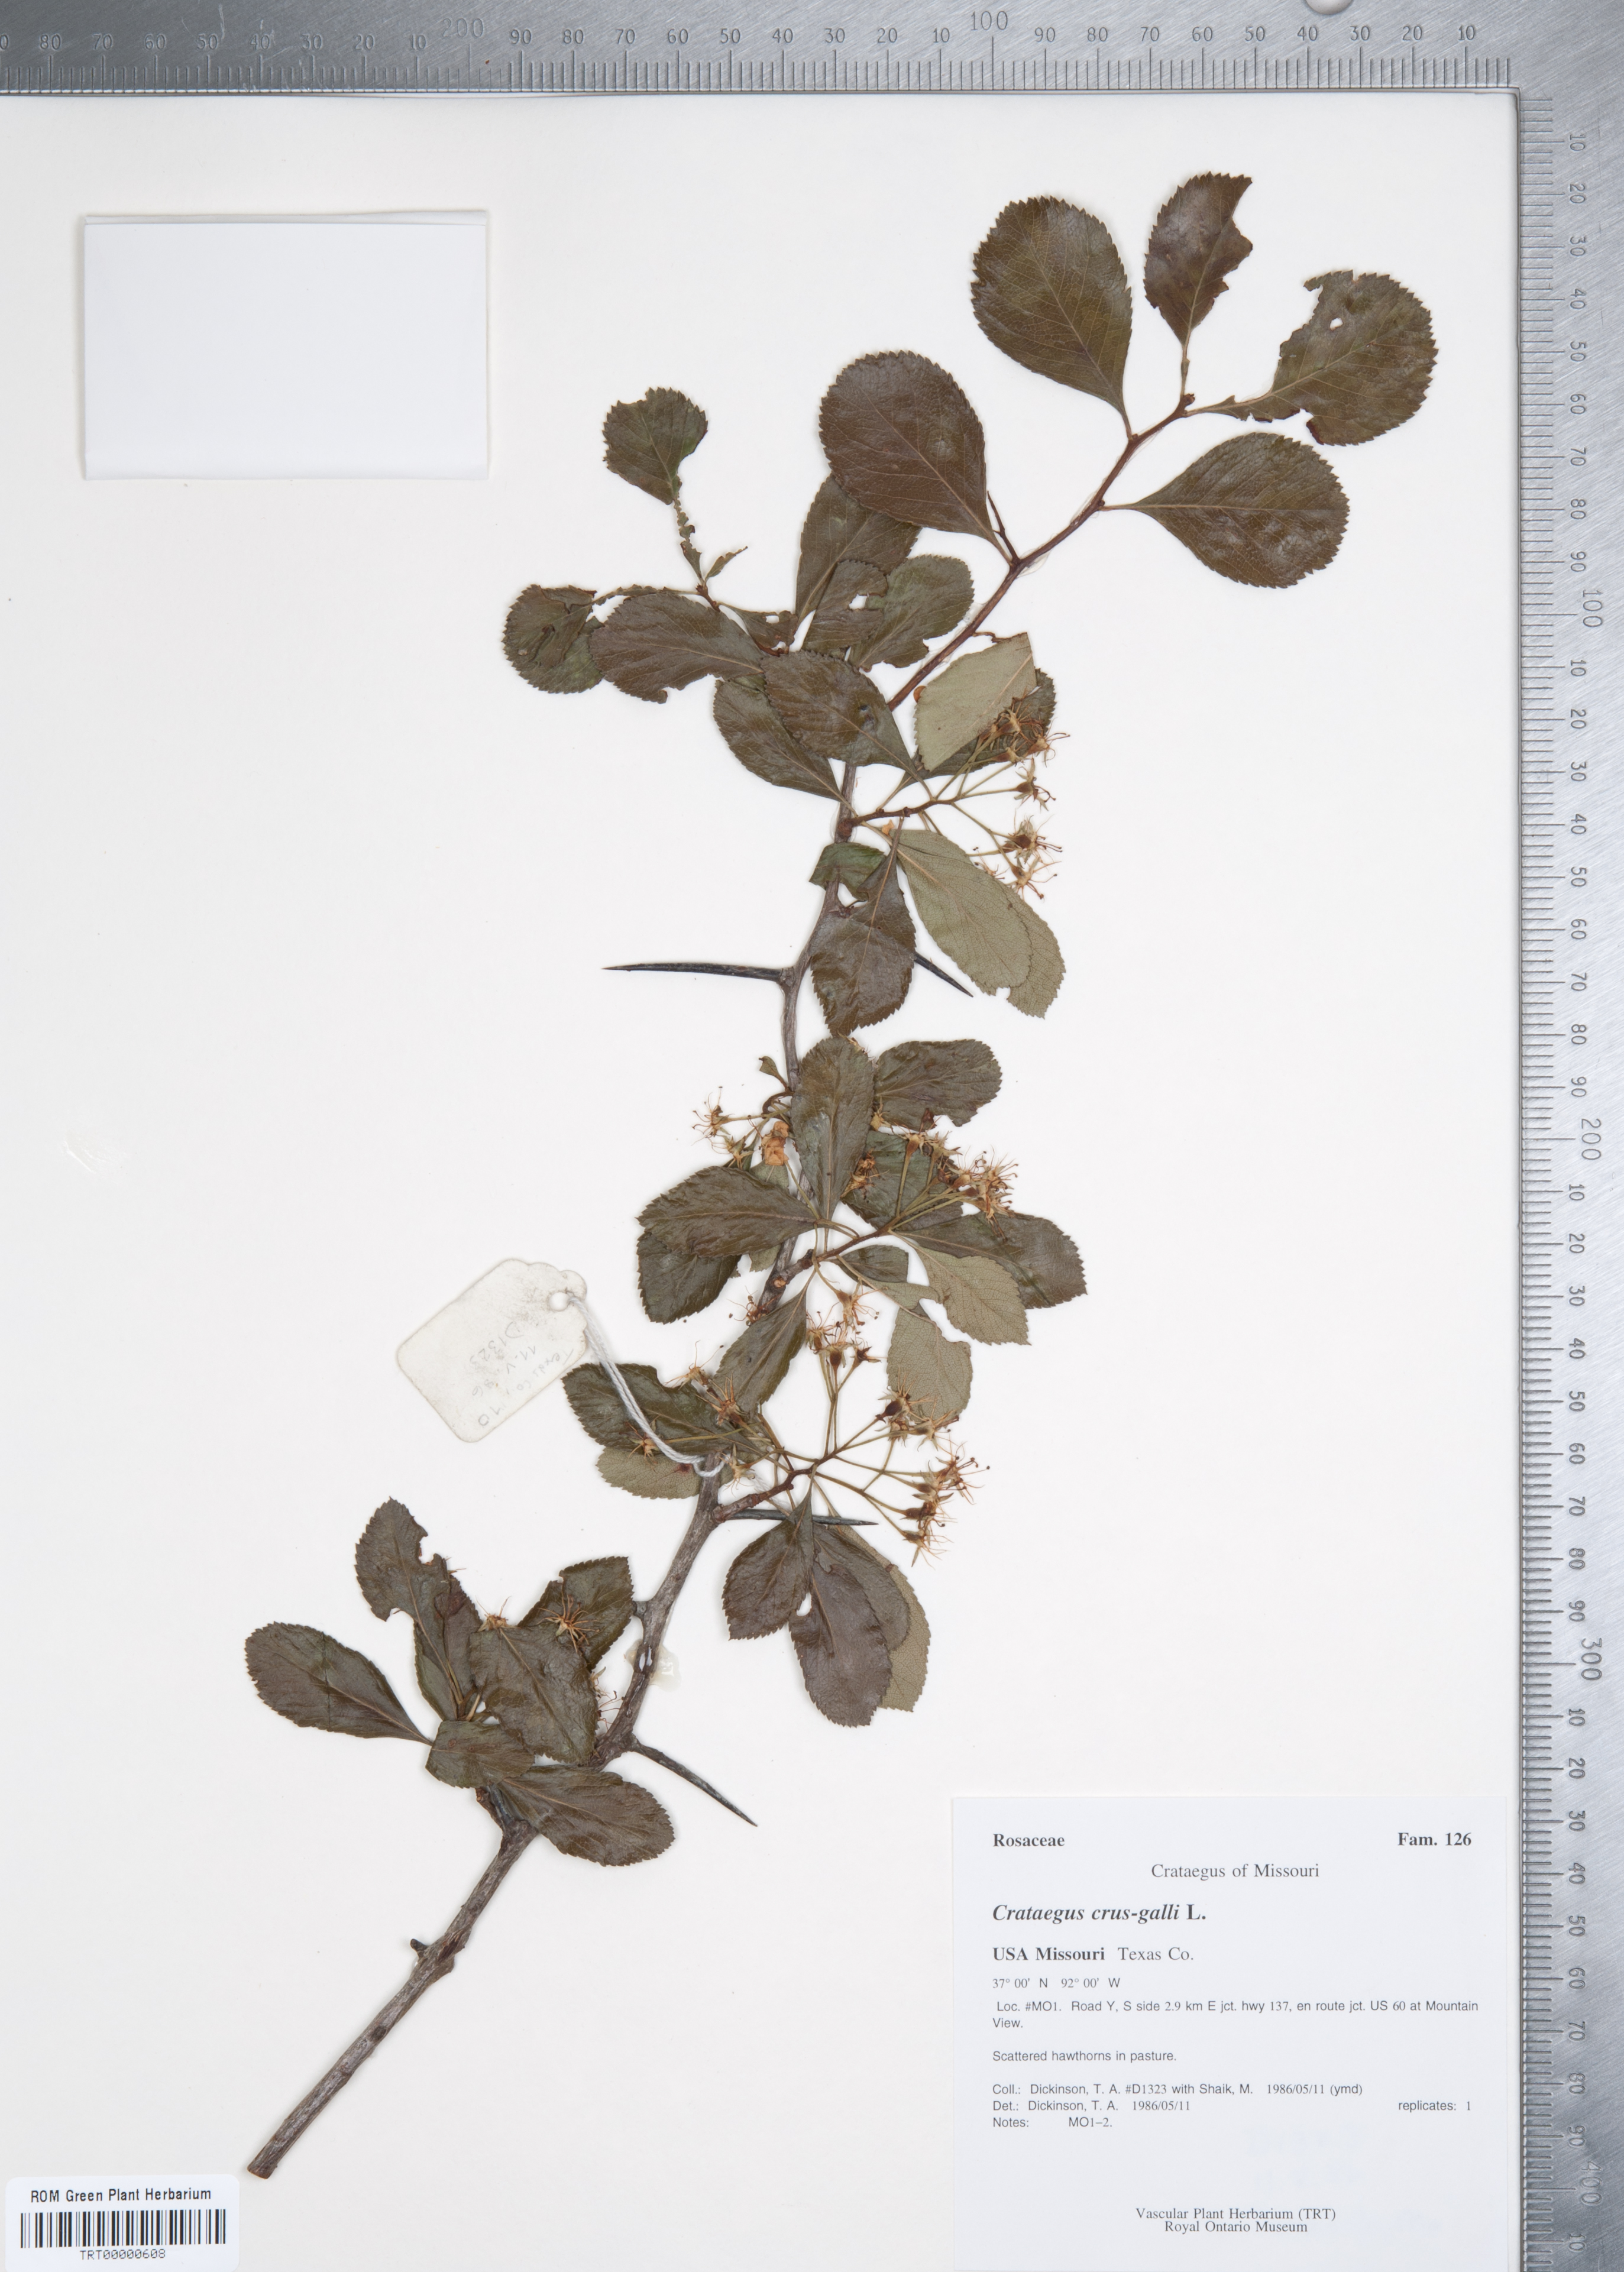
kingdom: Plantae
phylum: Tracheophyta
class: Magnoliopsida
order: Rosales
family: Rosaceae
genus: Crataegus
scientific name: Crataegus crus-galli
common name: Cockspurthorn
